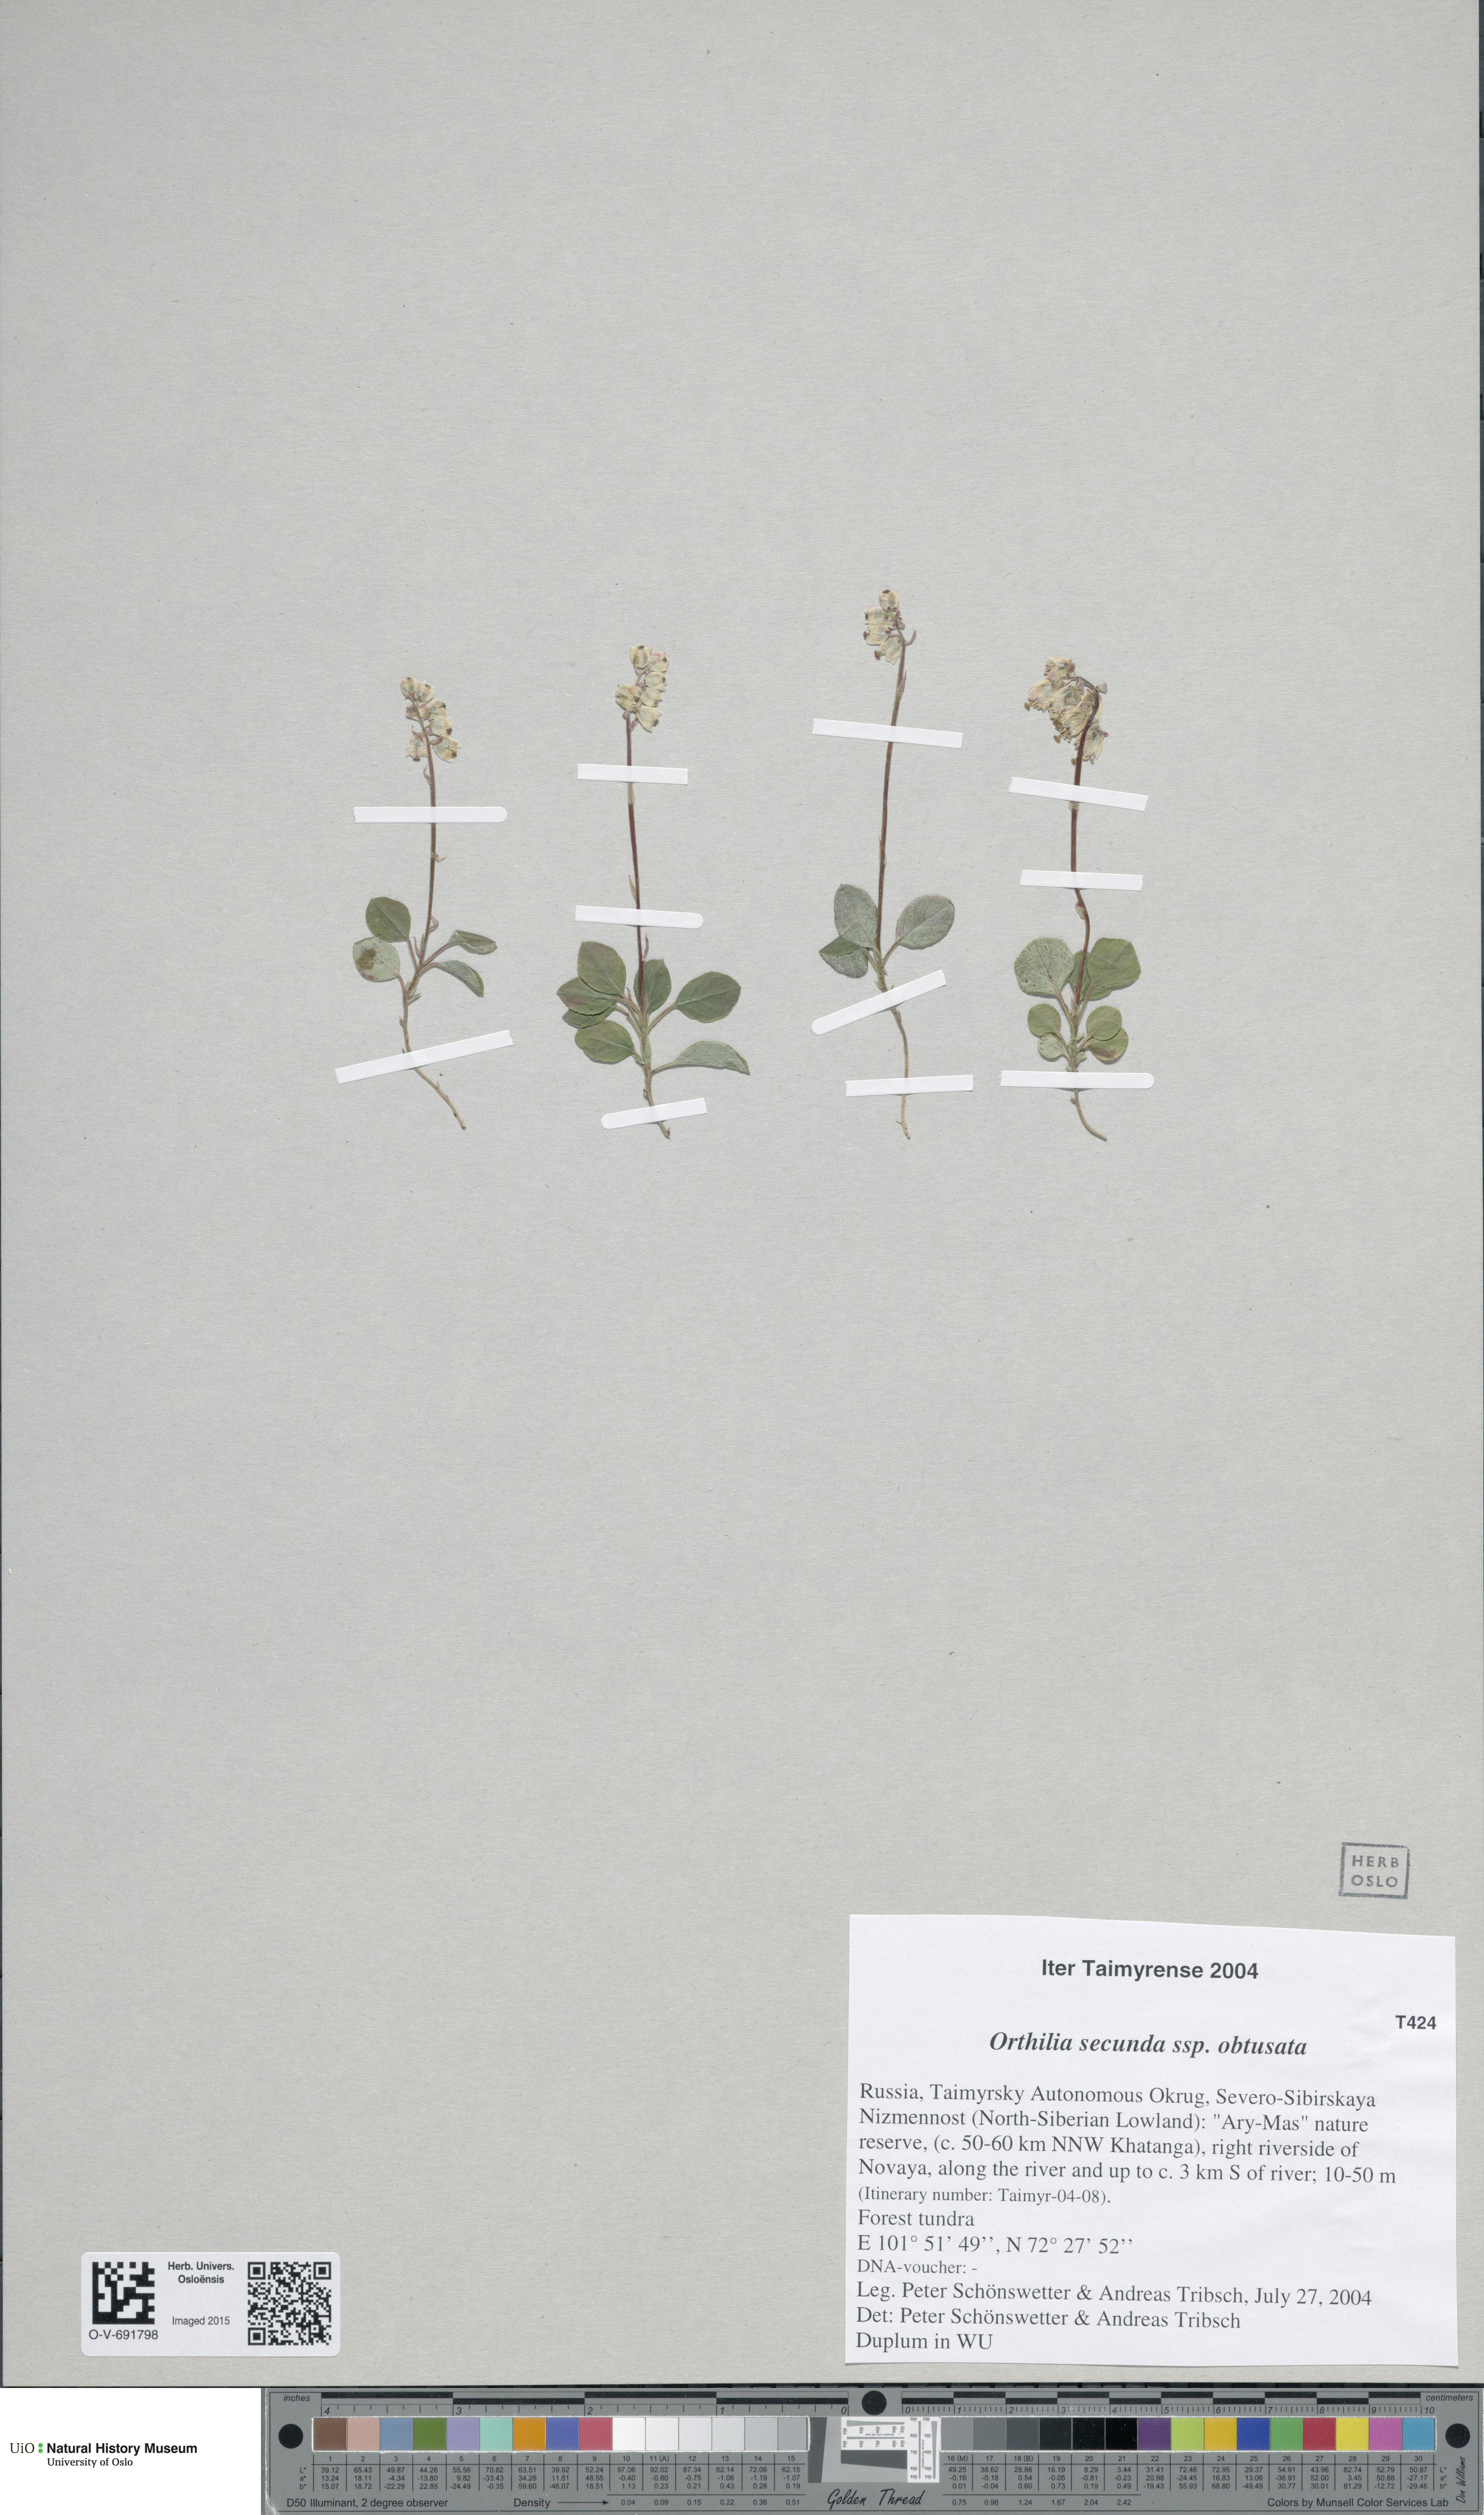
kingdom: Plantae
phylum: Tracheophyta
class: Magnoliopsida
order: Ericales
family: Ericaceae
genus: Orthilia
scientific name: Orthilia secunda
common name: One-sided orthilia
